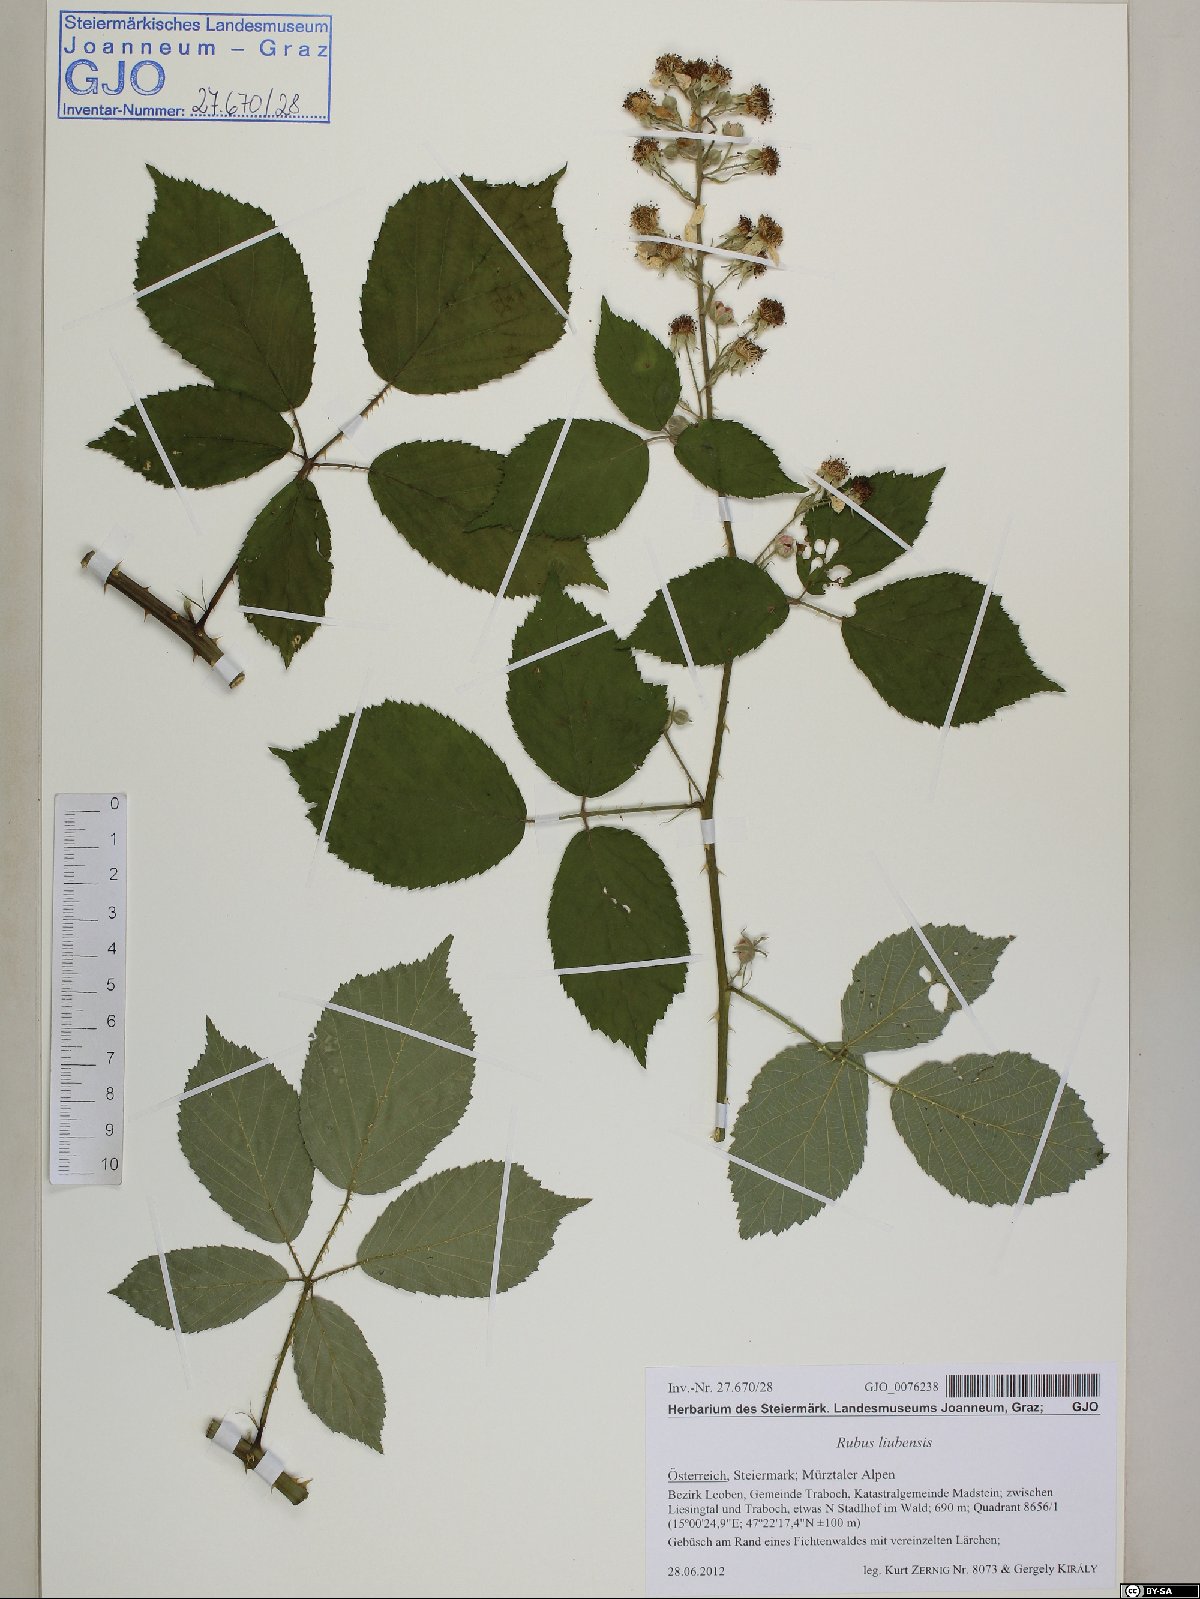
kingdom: Plantae
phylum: Tracheophyta
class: Magnoliopsida
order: Rosales
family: Rosaceae
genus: Rubus
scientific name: Rubus liubensis
